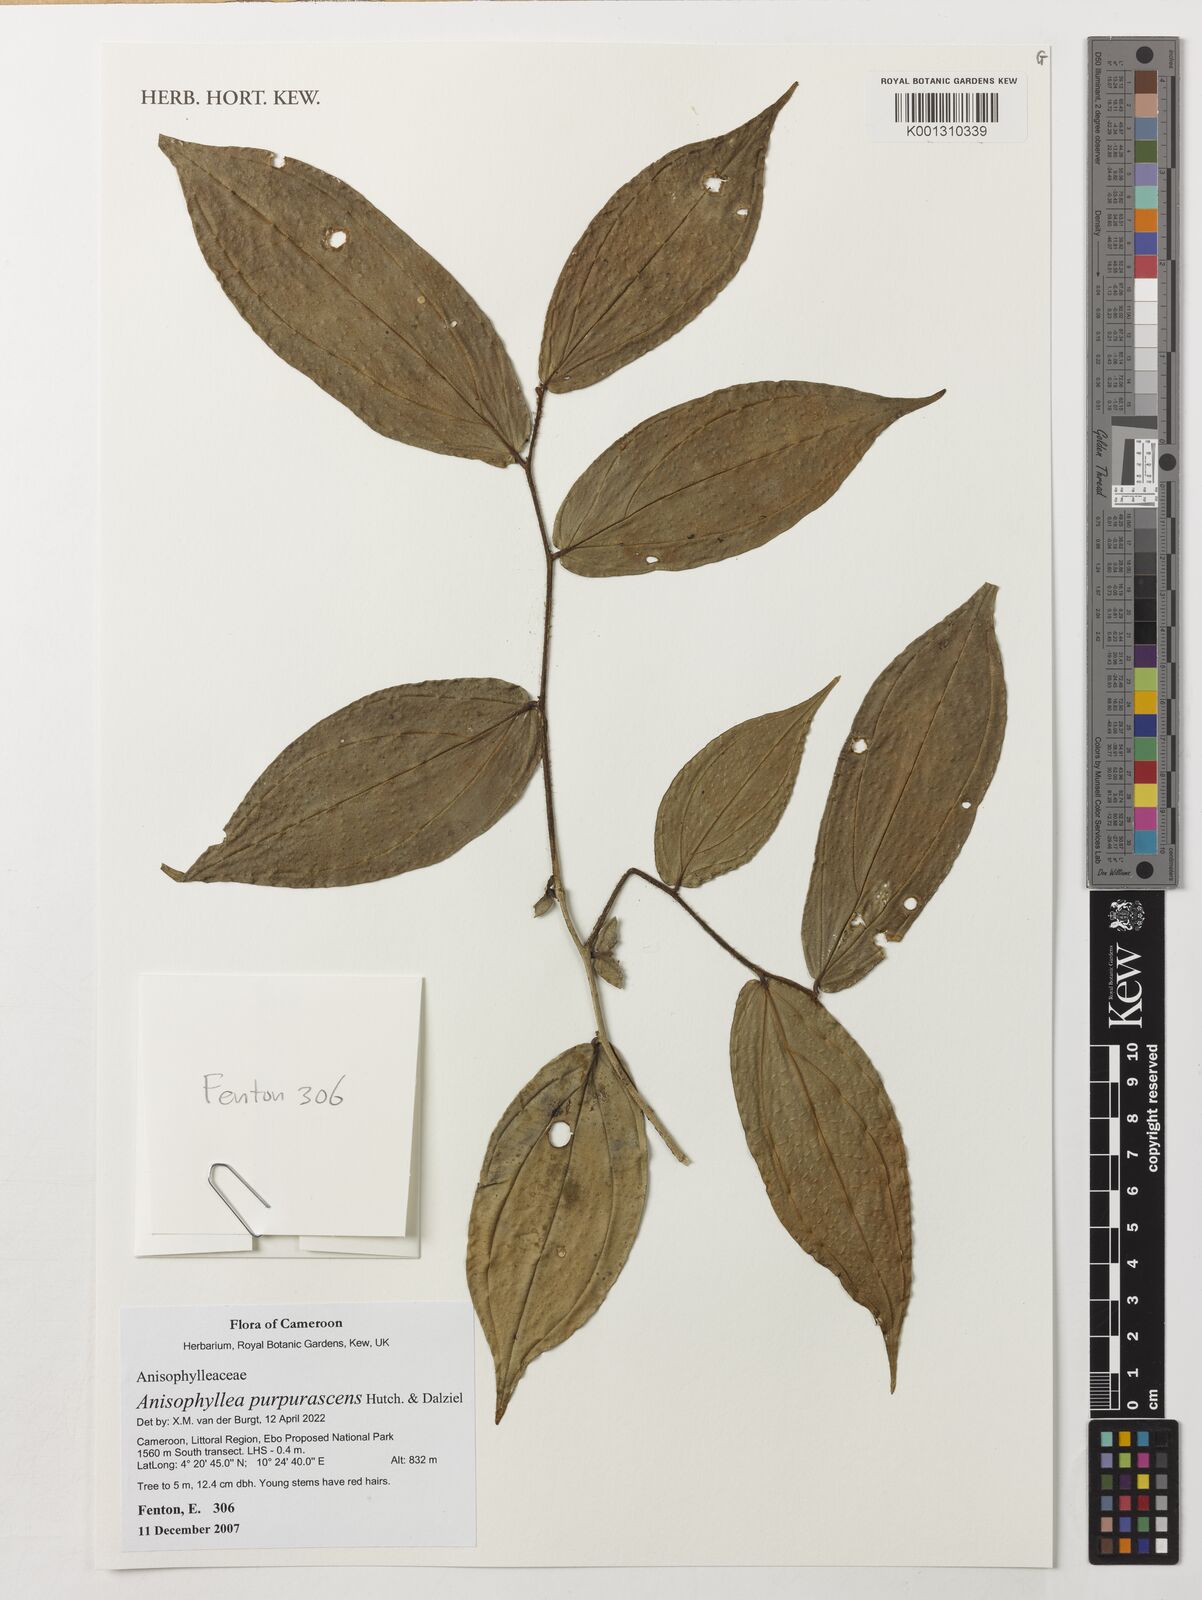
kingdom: Plantae
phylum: Tracheophyta
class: Magnoliopsida
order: Cucurbitales
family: Anisophylleaceae
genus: Anisophyllea
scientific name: Anisophyllea purpurascens
